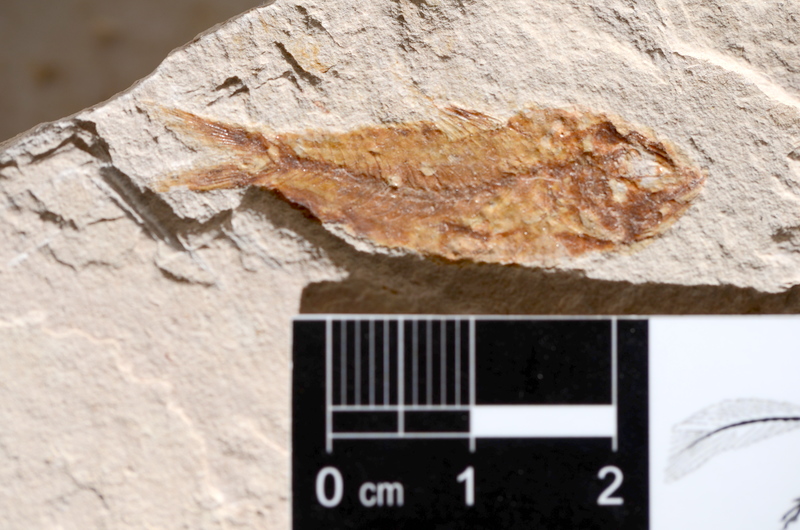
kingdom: Animalia
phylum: Chordata
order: Clupeiformes
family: Clupeidae
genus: Clupea
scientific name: Clupea harengus
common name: Herring
